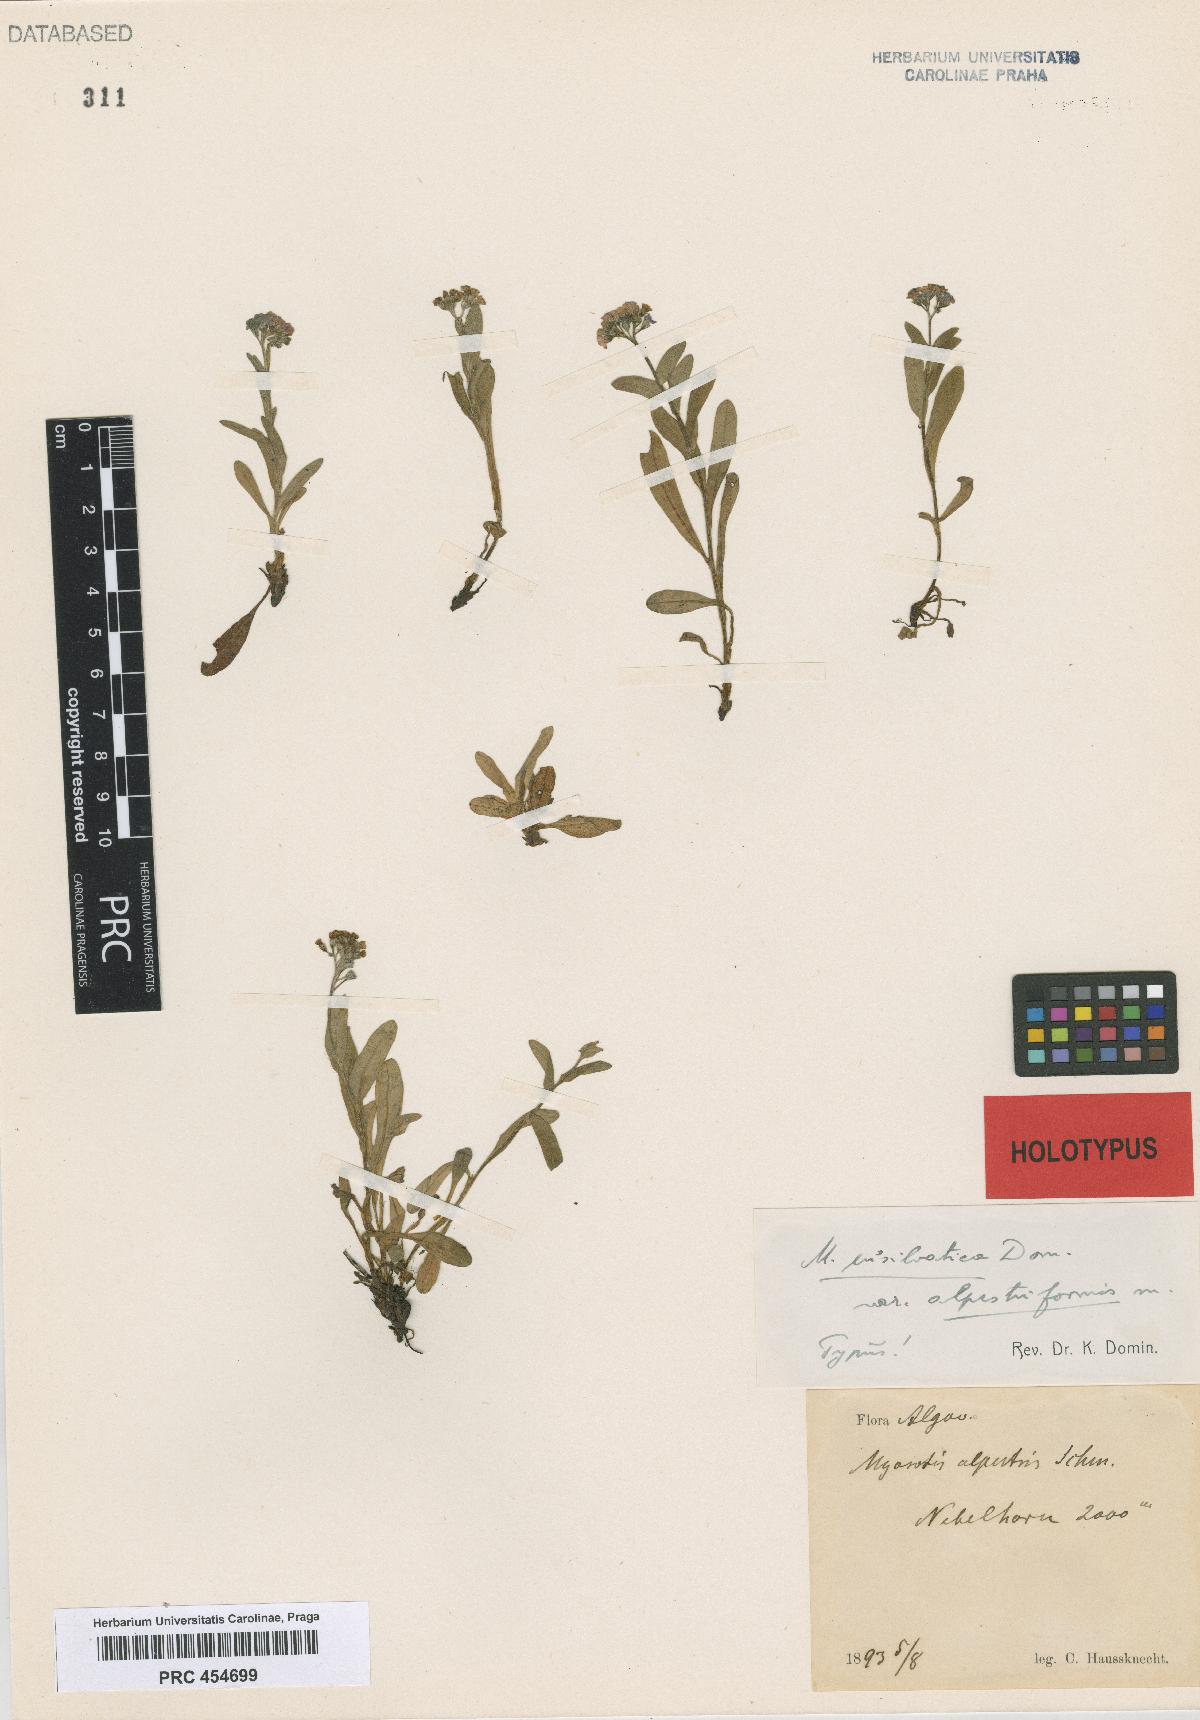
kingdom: Plantae
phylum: Tracheophyta
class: Magnoliopsida
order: Boraginales
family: Boraginaceae
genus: Myosotis
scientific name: Myosotis sylvatica
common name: Wood forget-me-not
